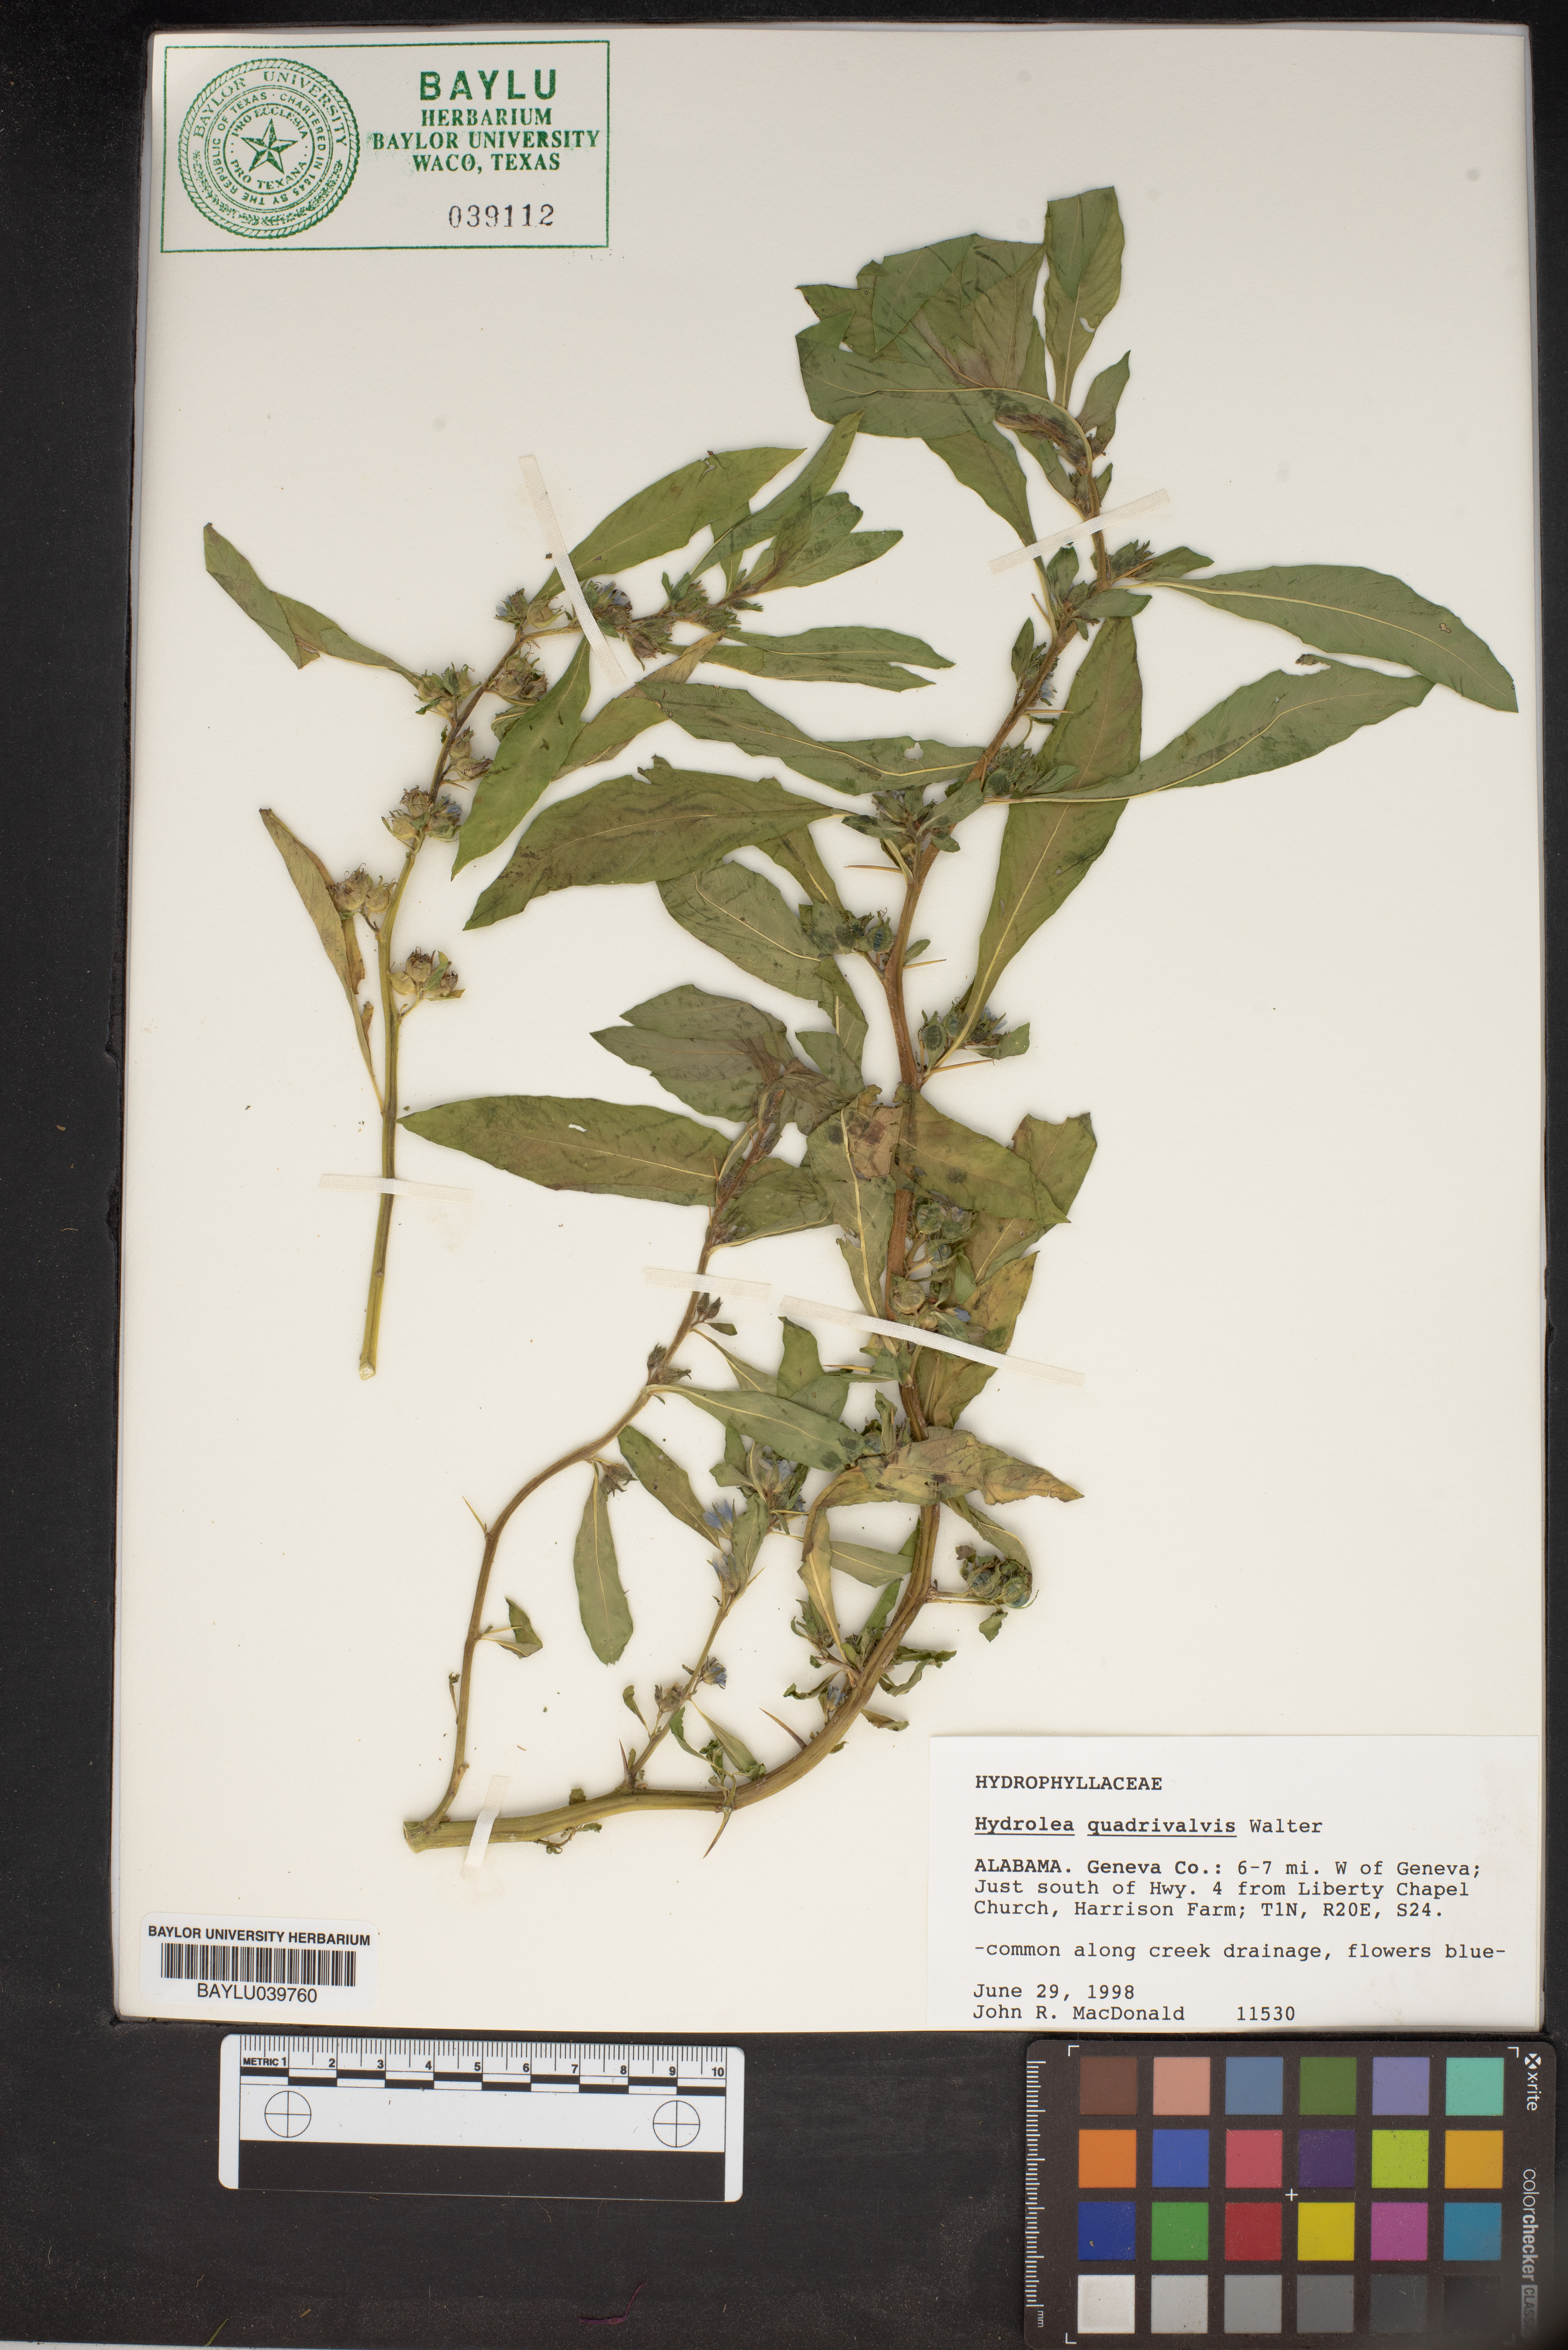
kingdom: Plantae
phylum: Tracheophyta
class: Magnoliopsida
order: Solanales
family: Hydroleaceae
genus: Hydrolea
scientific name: Hydrolea quadrivalvis
